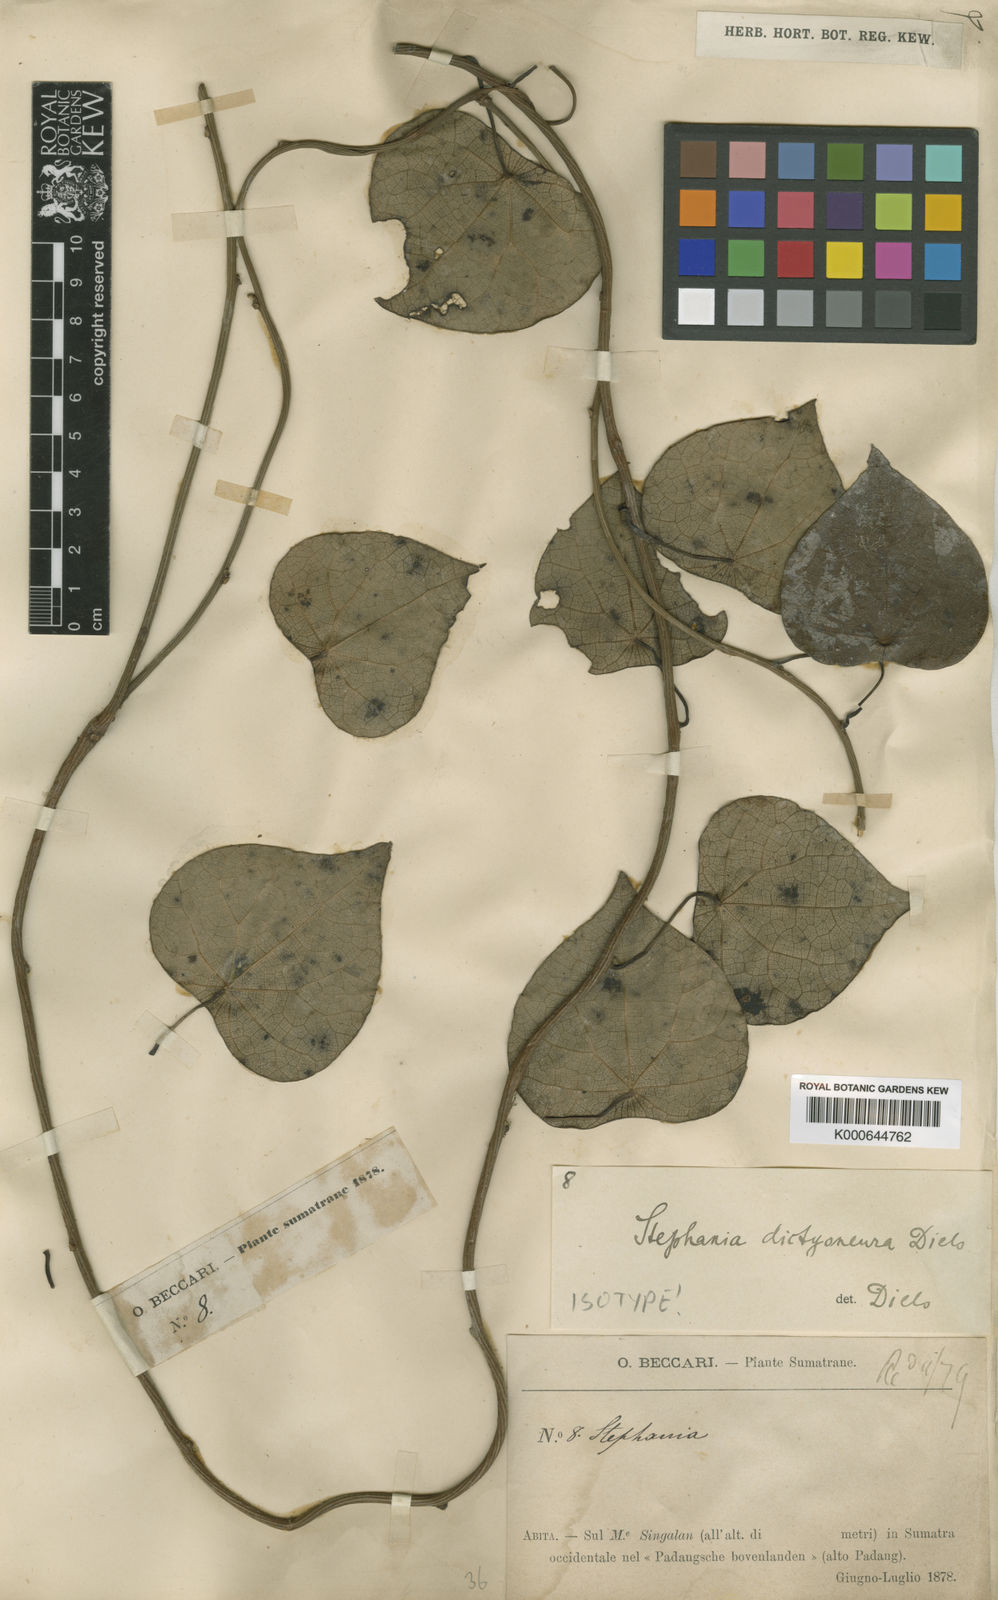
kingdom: Plantae
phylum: Tracheophyta
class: Magnoliopsida
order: Ranunculales
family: Menispermaceae
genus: Stephania
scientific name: Stephania dictyoneura
